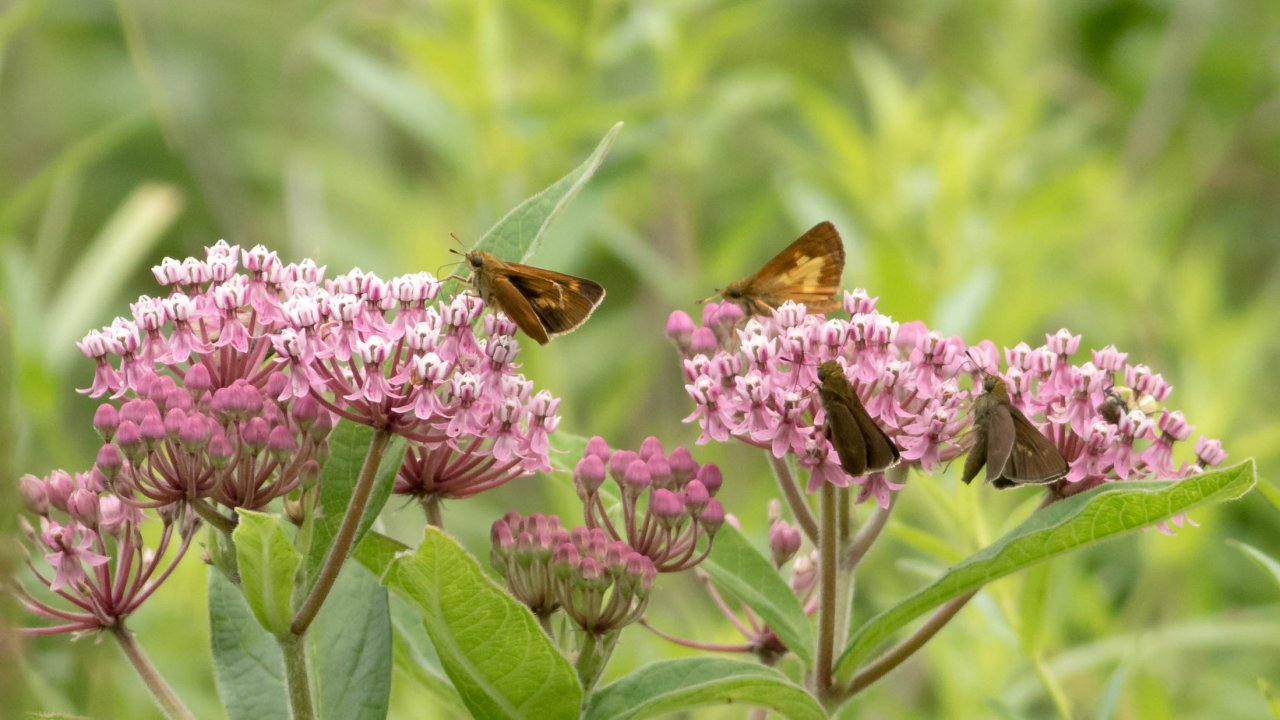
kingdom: Animalia
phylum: Arthropoda
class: Insecta
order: Lepidoptera
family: Hesperiidae
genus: Euphyes
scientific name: Euphyes conspicua
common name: Black Dash
